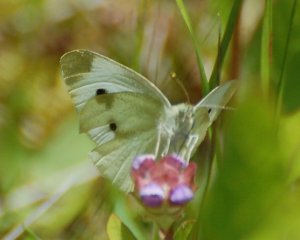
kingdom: Animalia
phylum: Arthropoda
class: Insecta
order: Lepidoptera
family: Pieridae
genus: Pieris
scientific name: Pieris rapae
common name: Cabbage White
